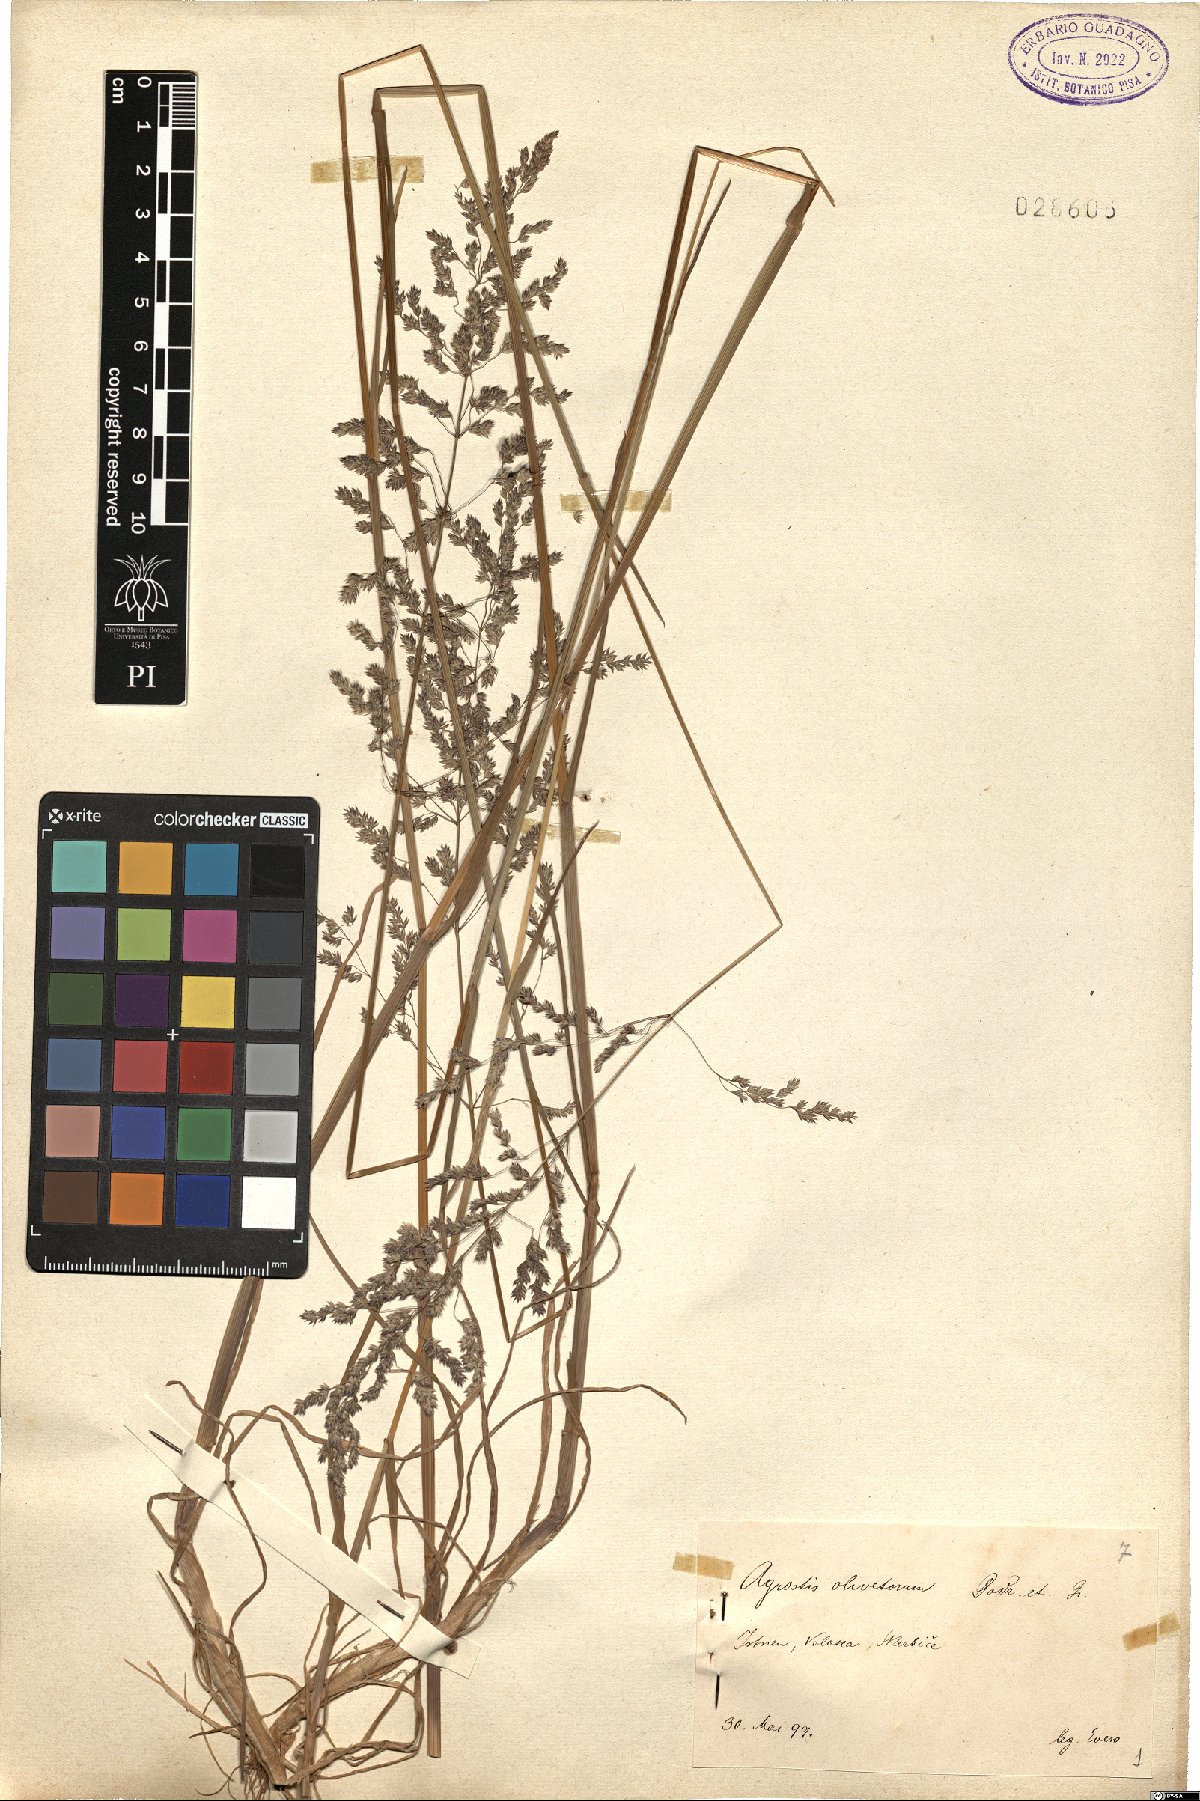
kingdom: Plantae
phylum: Tracheophyta
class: Liliopsida
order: Poales
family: Poaceae
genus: Agrostis
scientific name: Agrostis castellana
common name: Highland bent
